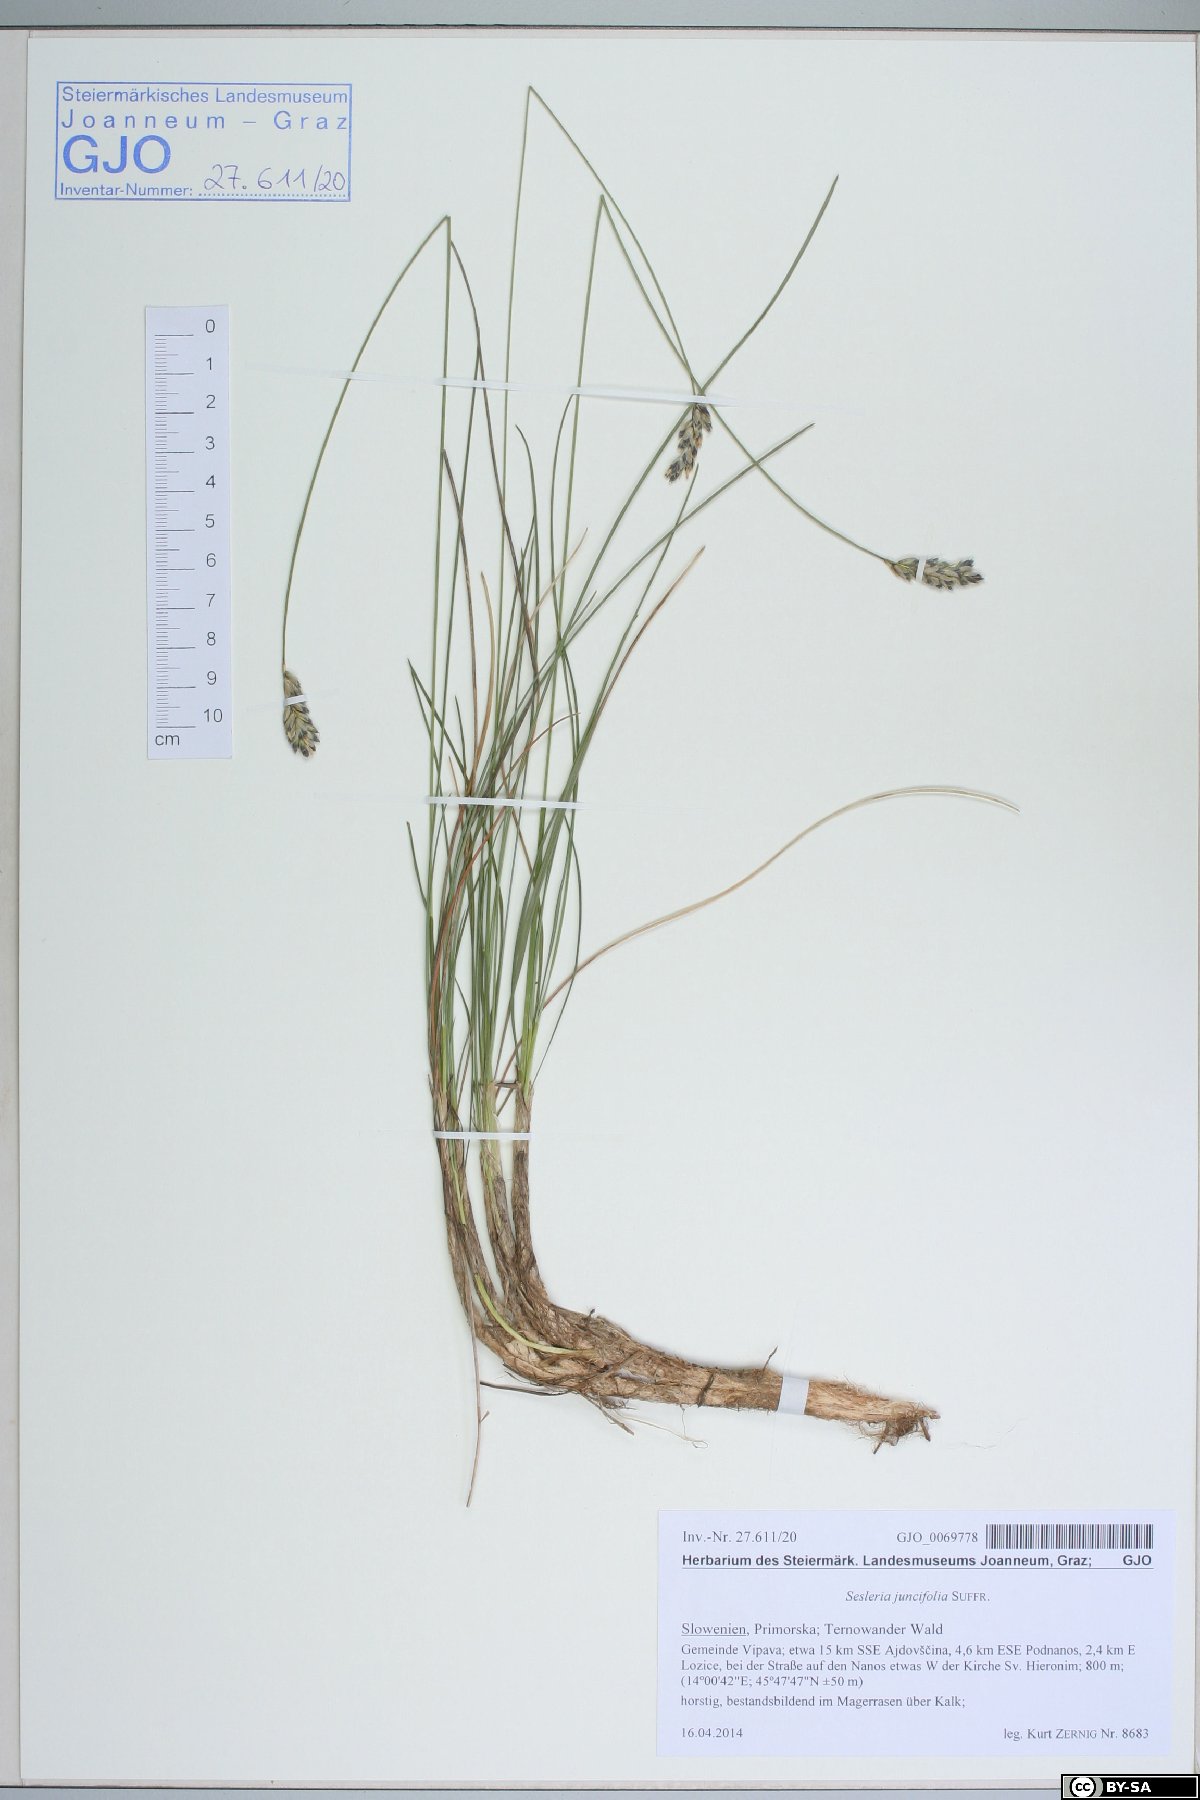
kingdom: Plantae
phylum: Tracheophyta
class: Liliopsida
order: Poales
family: Poaceae
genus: Sesleria
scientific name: Sesleria juncifolia
